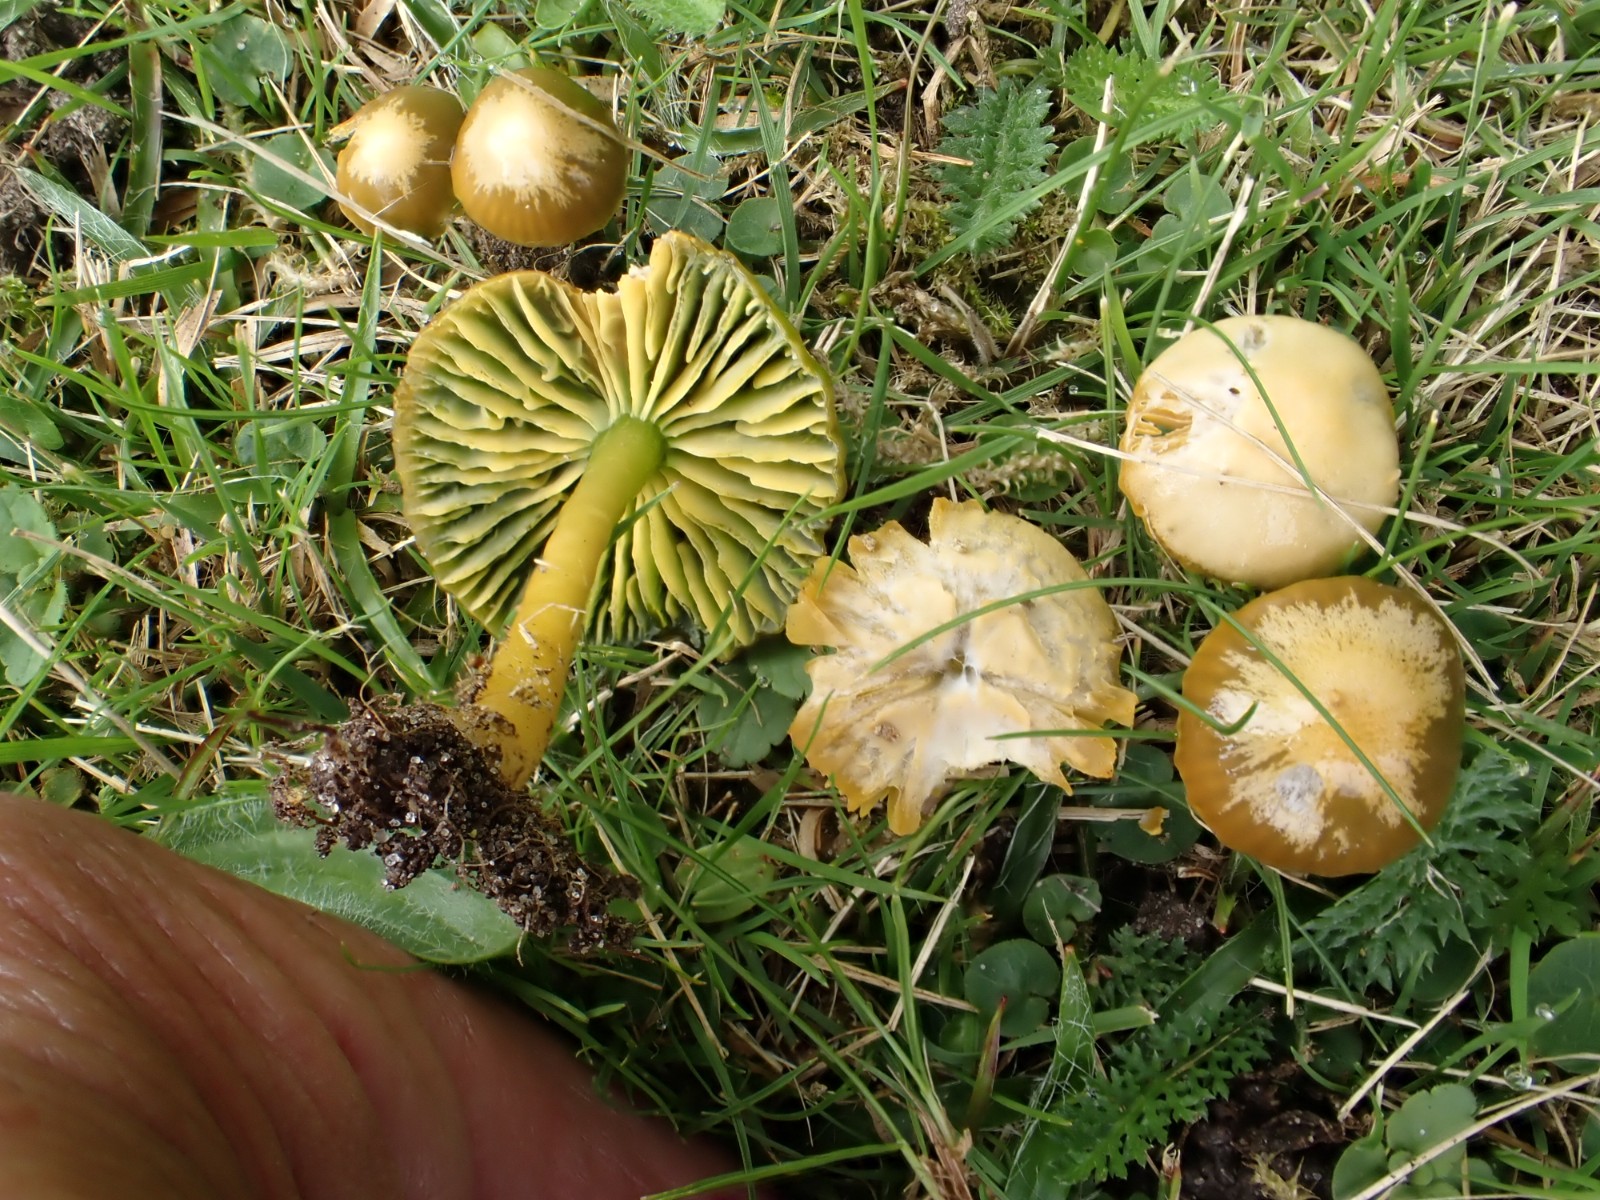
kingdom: Fungi
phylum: Basidiomycota
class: Agaricomycetes
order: Agaricales
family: Hygrophoraceae
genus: Gliophorus
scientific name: Gliophorus psittacinus
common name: papegøje-vokshat
